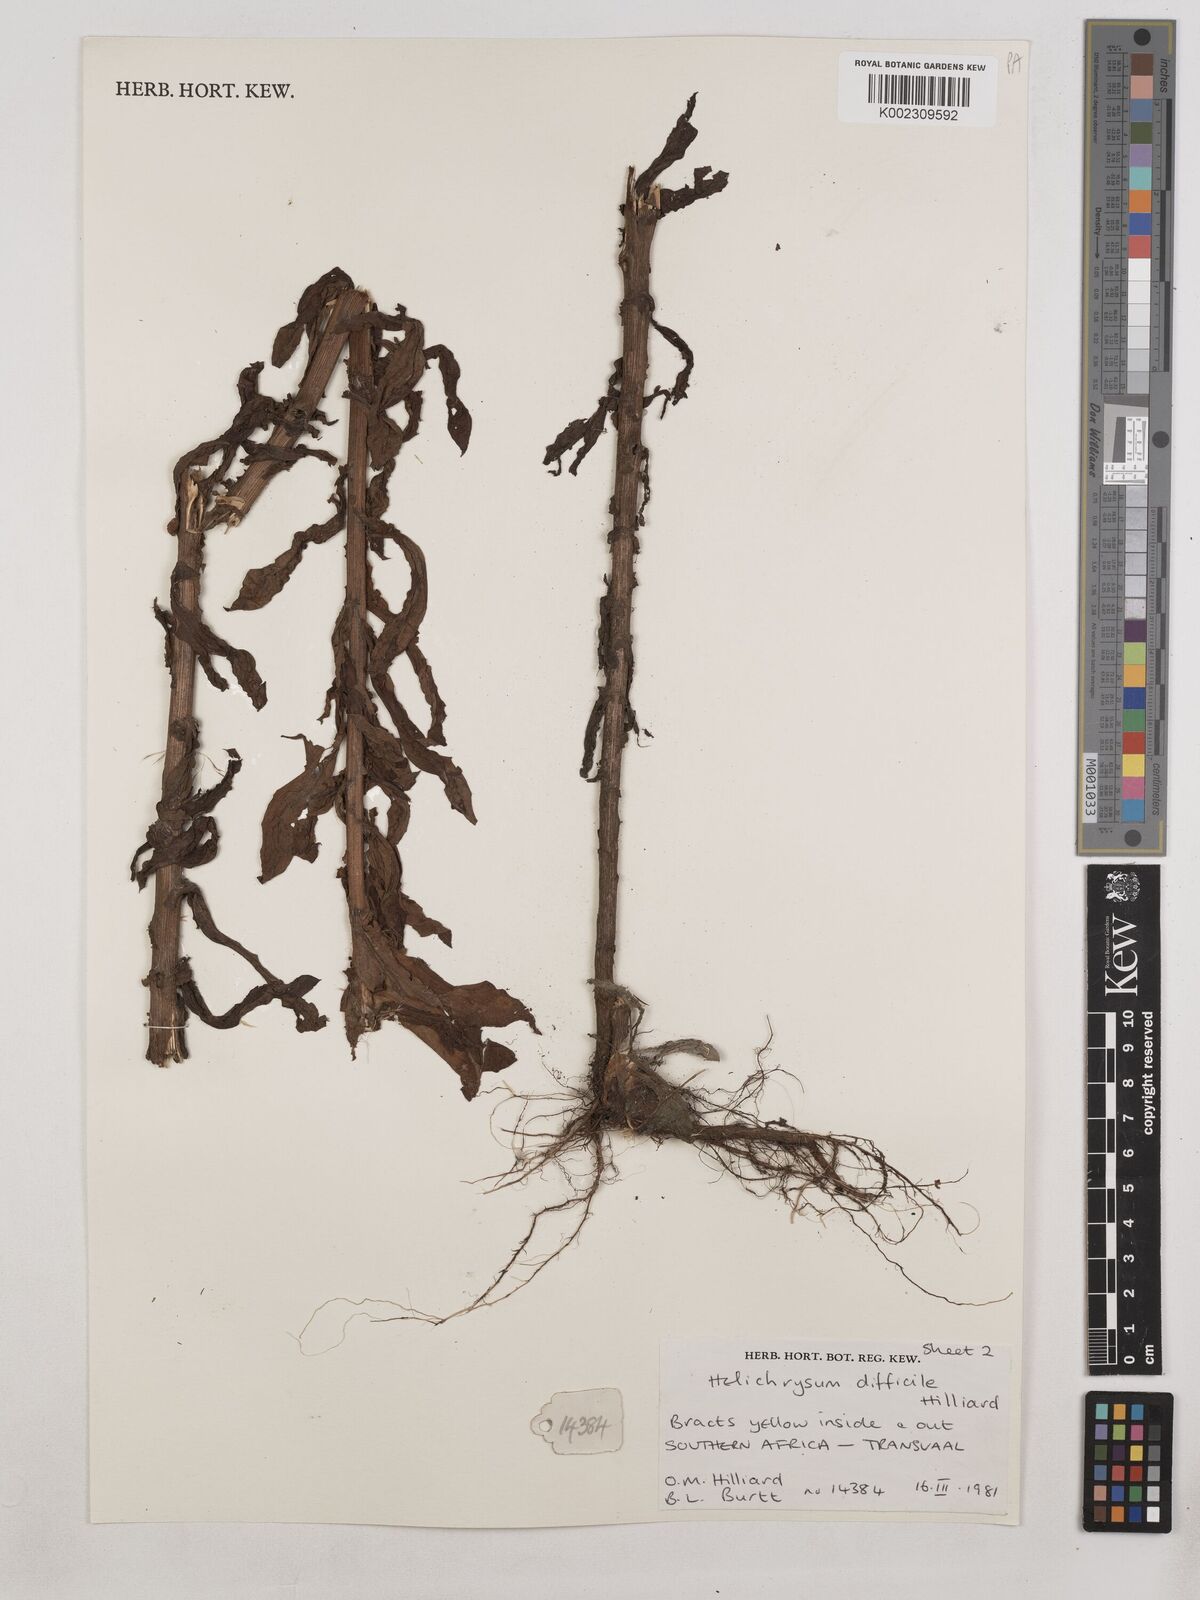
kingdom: Plantae
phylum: Tracheophyta
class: Magnoliopsida
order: Asterales
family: Asteraceae
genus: Helichrysum
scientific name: Helichrysum difficile
